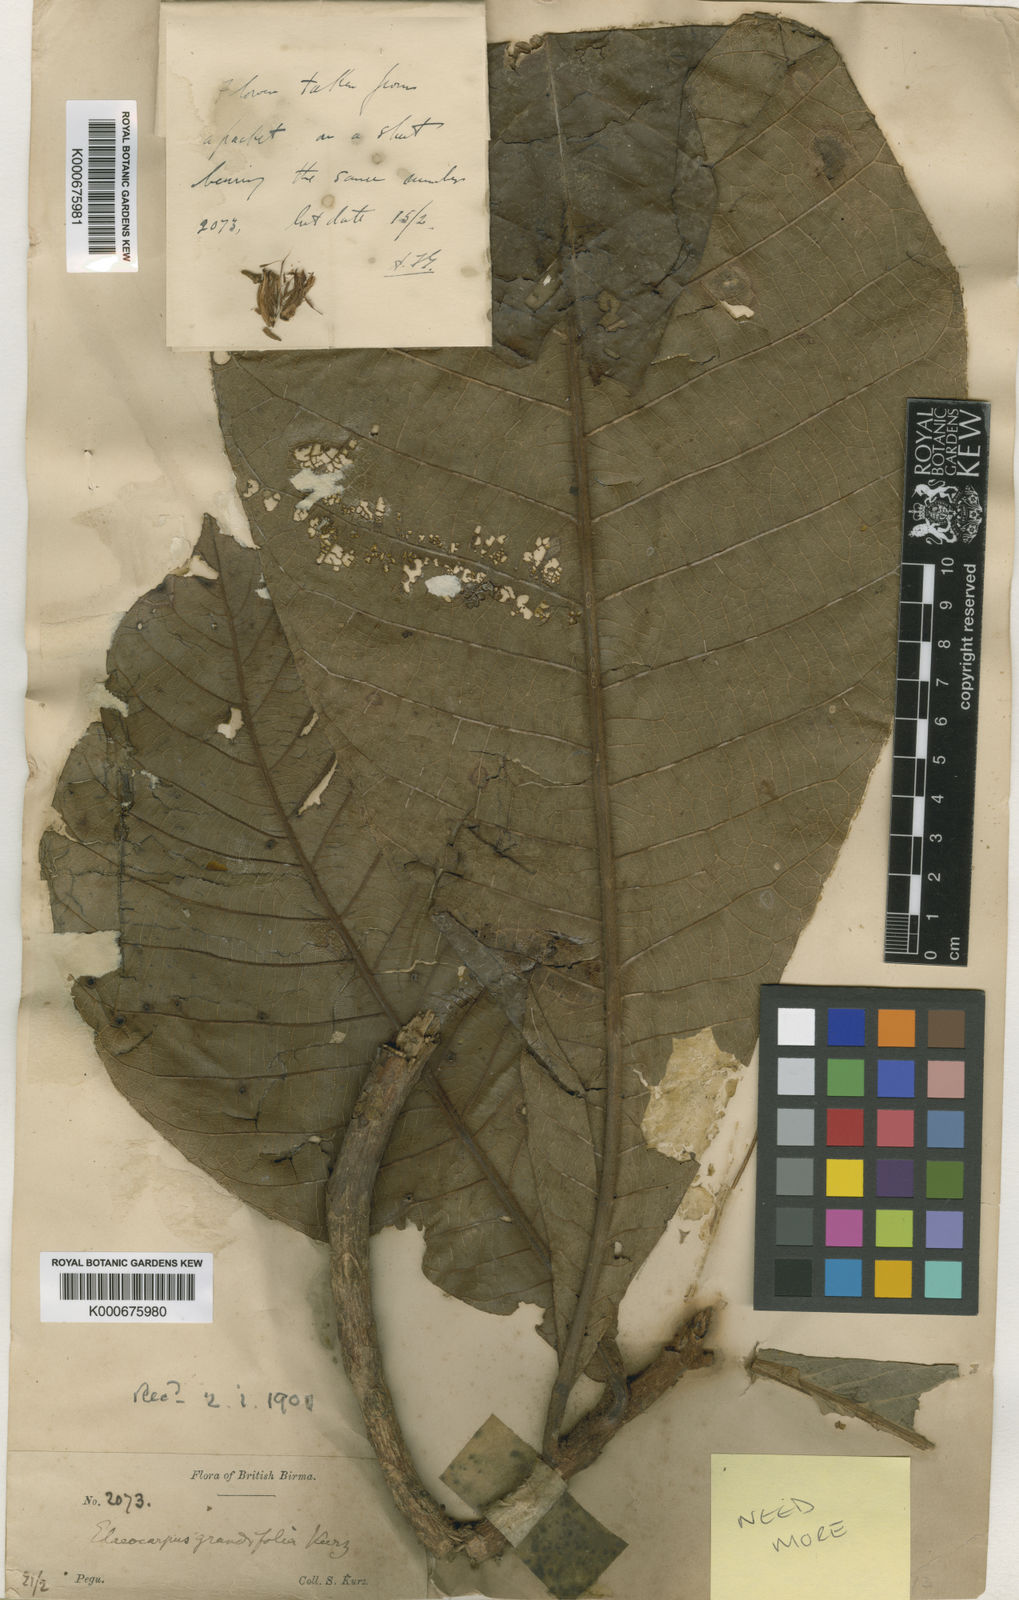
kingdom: Plantae
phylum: Tracheophyta
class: Magnoliopsida
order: Oxalidales
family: Elaeocarpaceae
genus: Elaeocarpus
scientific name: Elaeocarpus grandifolius
